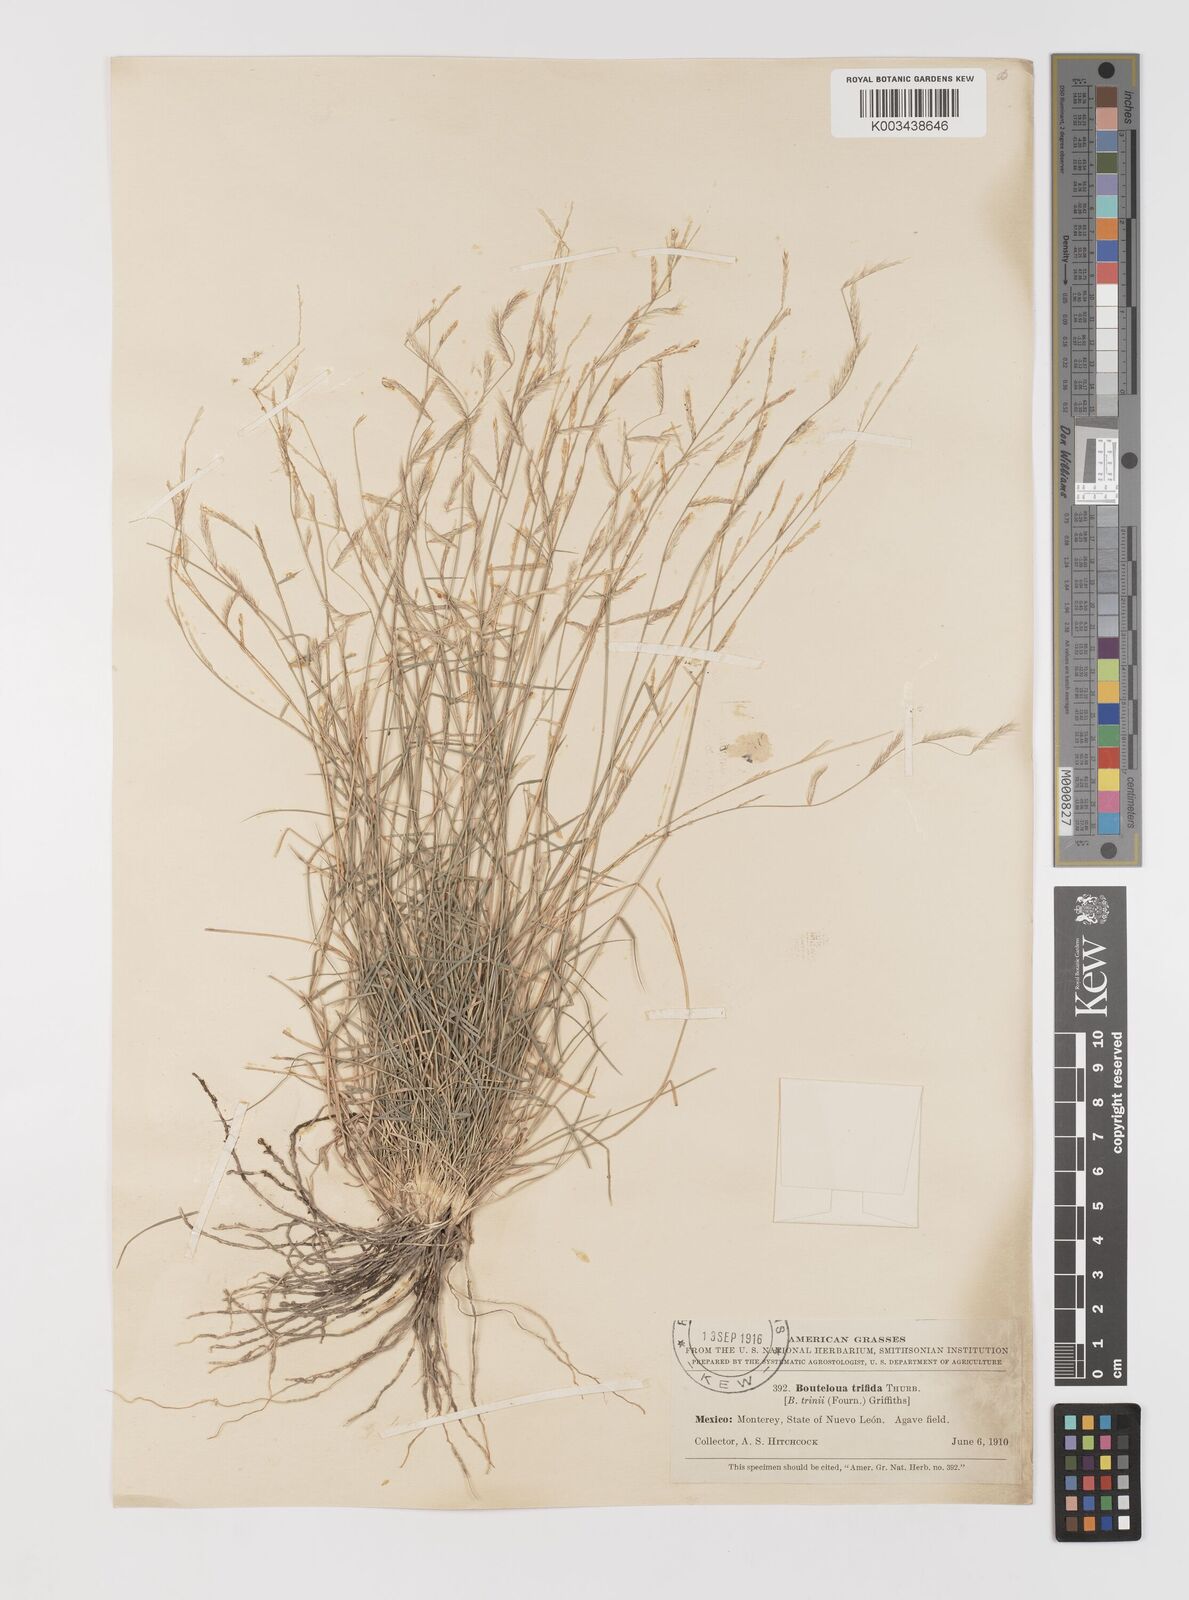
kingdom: Plantae
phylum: Tracheophyta
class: Liliopsida
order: Poales
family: Poaceae
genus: Bouteloua
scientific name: Bouteloua
